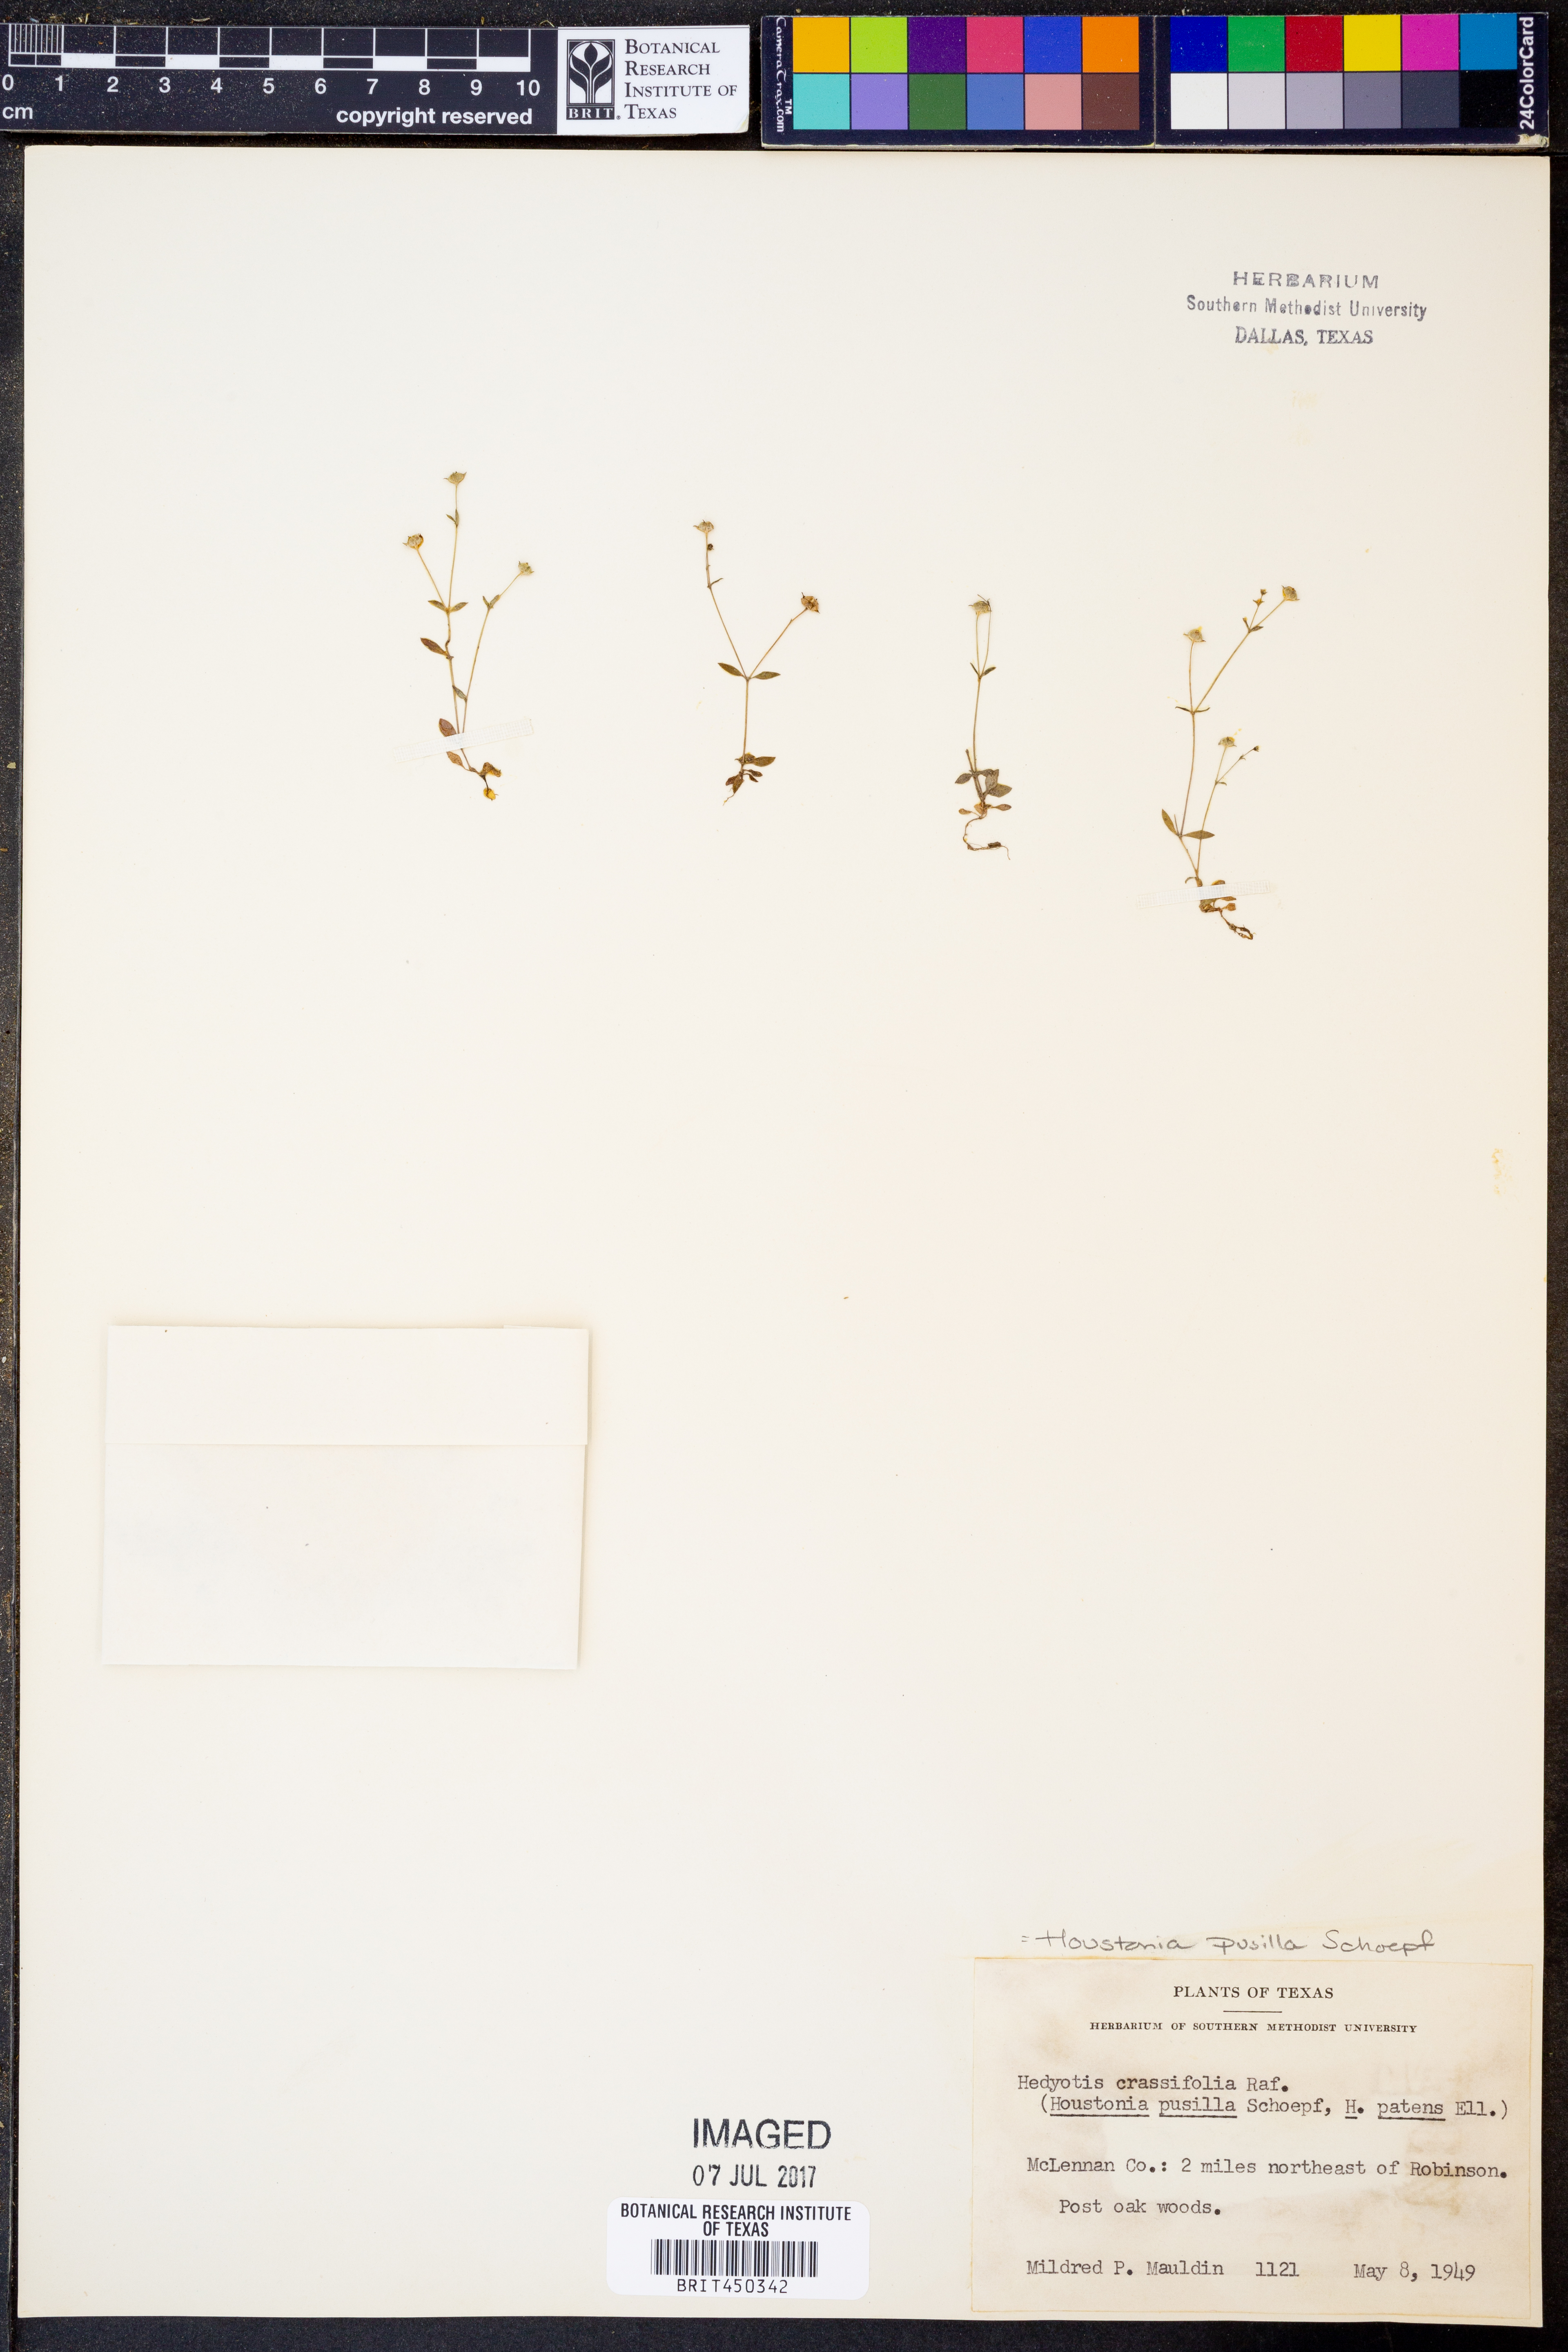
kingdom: Plantae
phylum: Tracheophyta
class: Magnoliopsida
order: Gentianales
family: Rubiaceae
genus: Oldenlandia
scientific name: Oldenlandia corymbosa
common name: Flat-top mille graines
